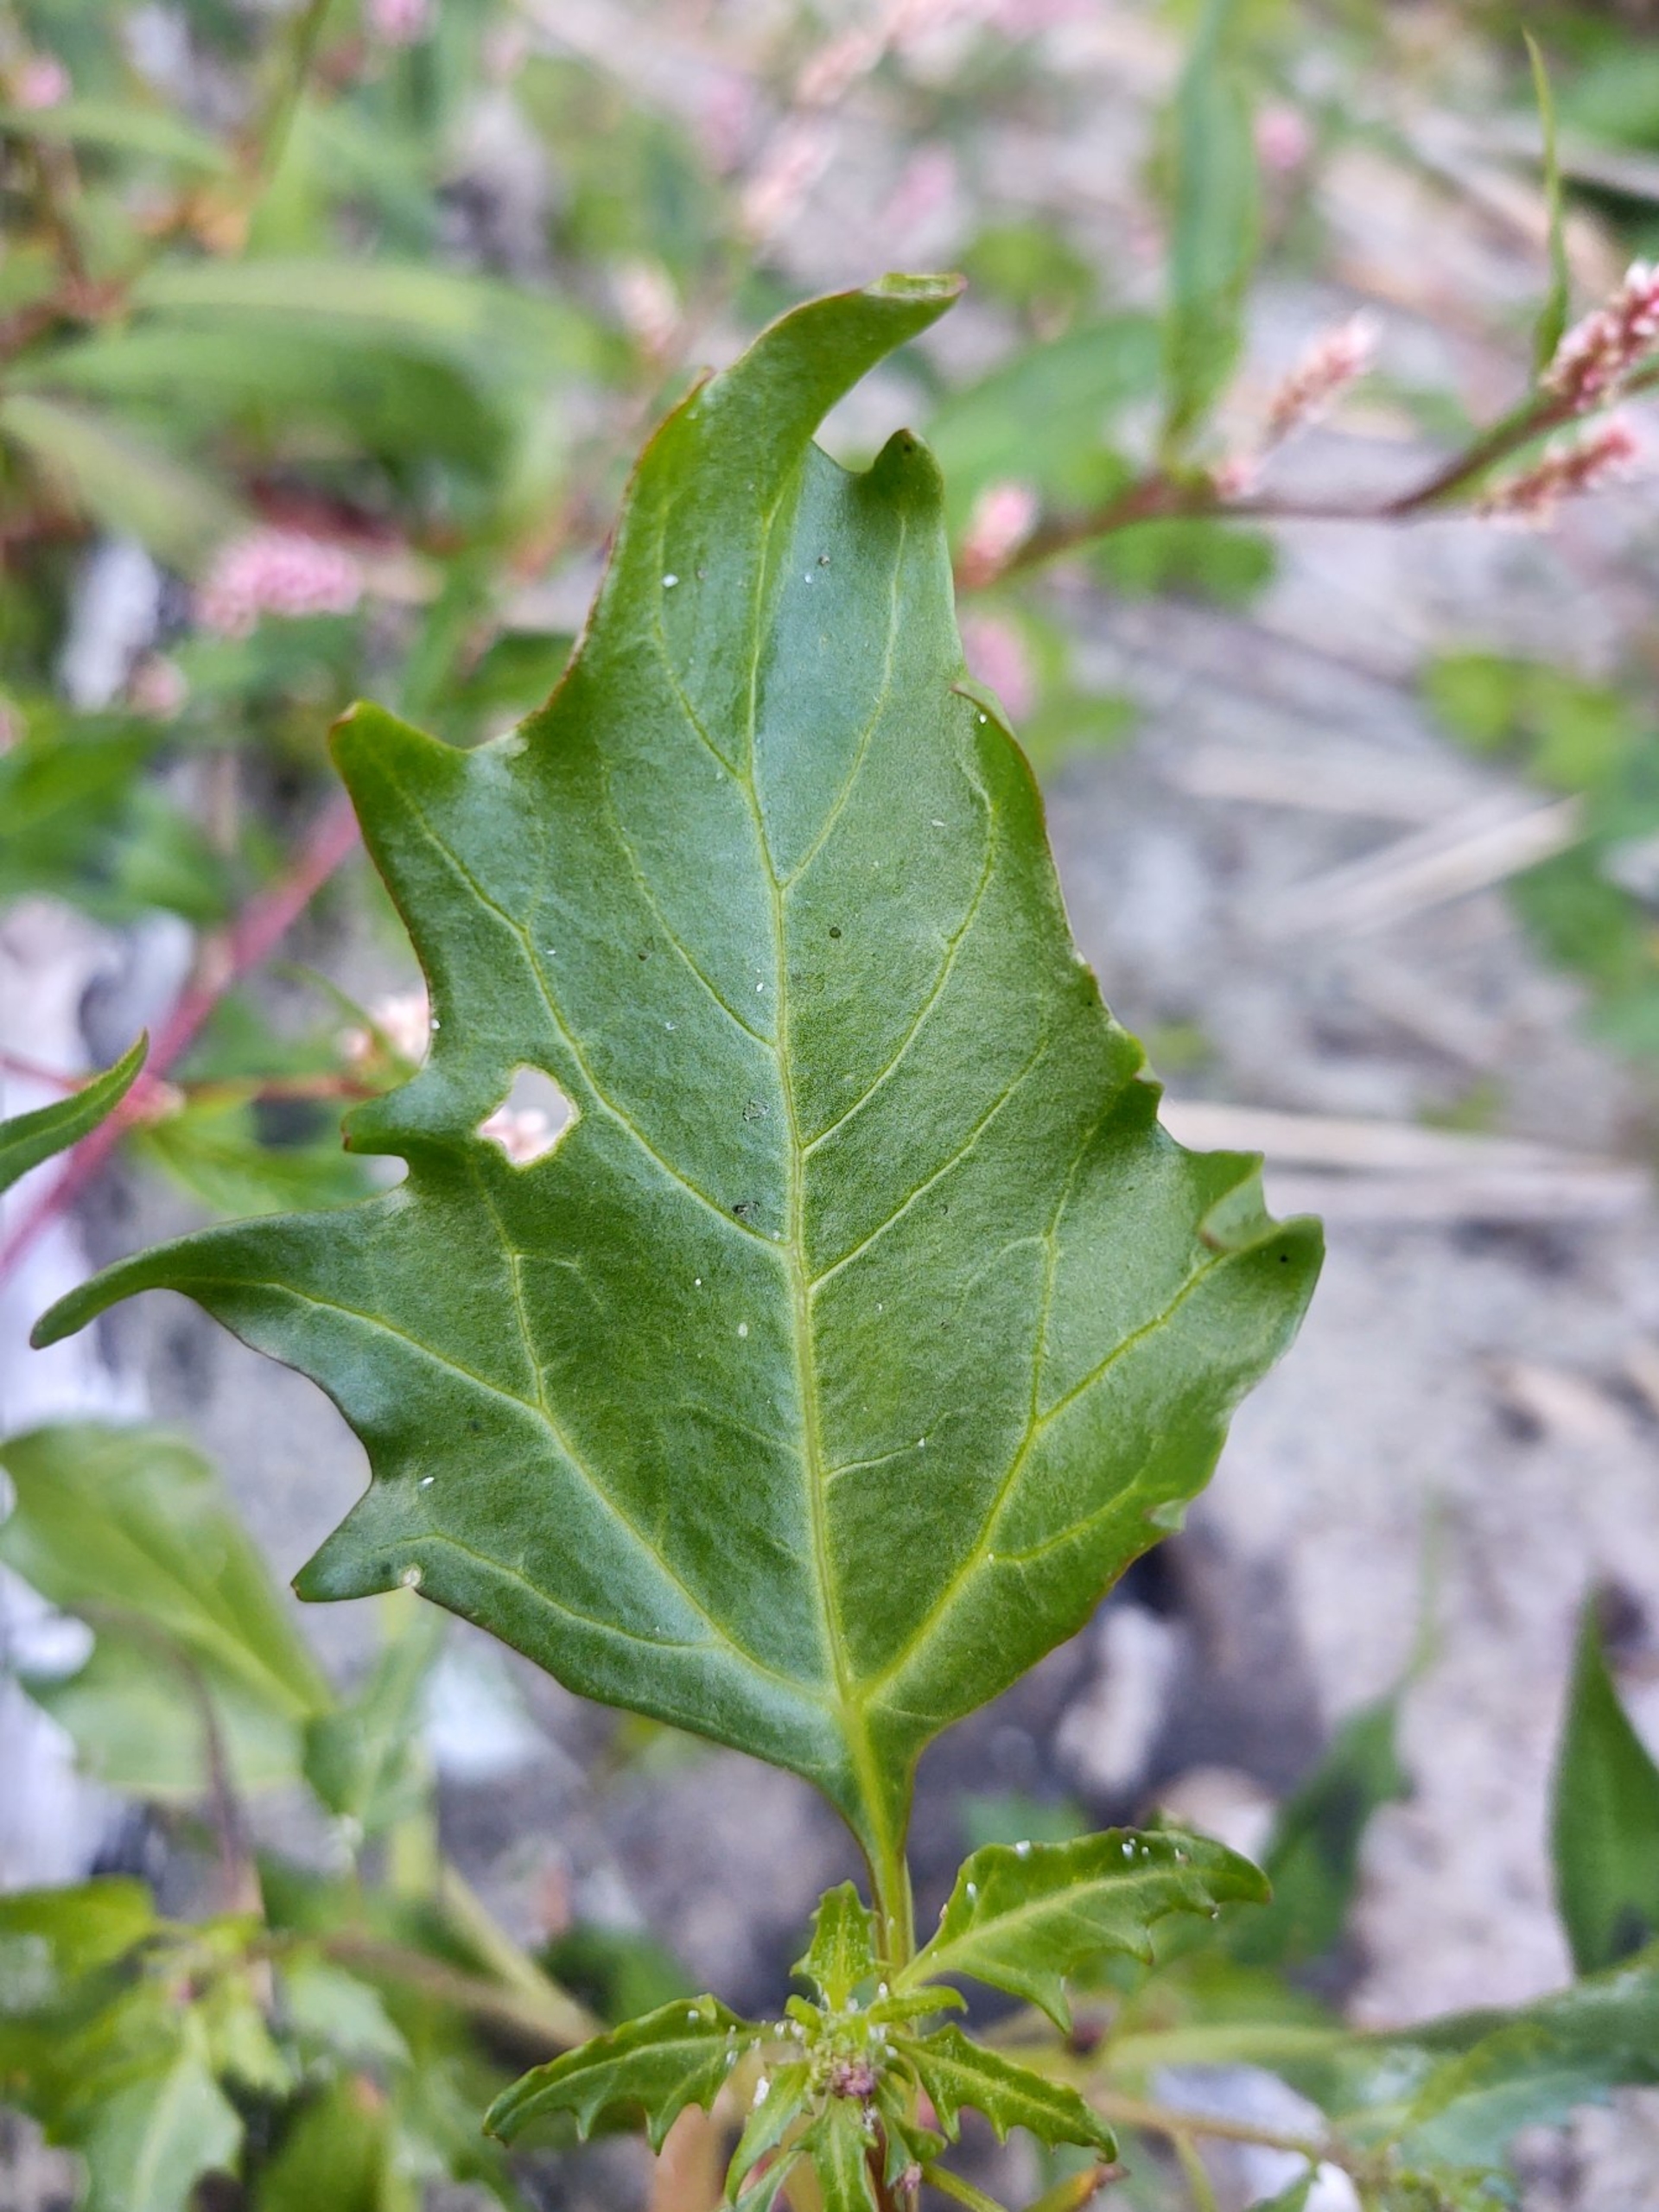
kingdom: Plantae
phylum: Tracheophyta
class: Magnoliopsida
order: Caryophyllales
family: Amaranthaceae
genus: Oxybasis
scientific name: Oxybasis rubra
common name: Rød gåsefod
